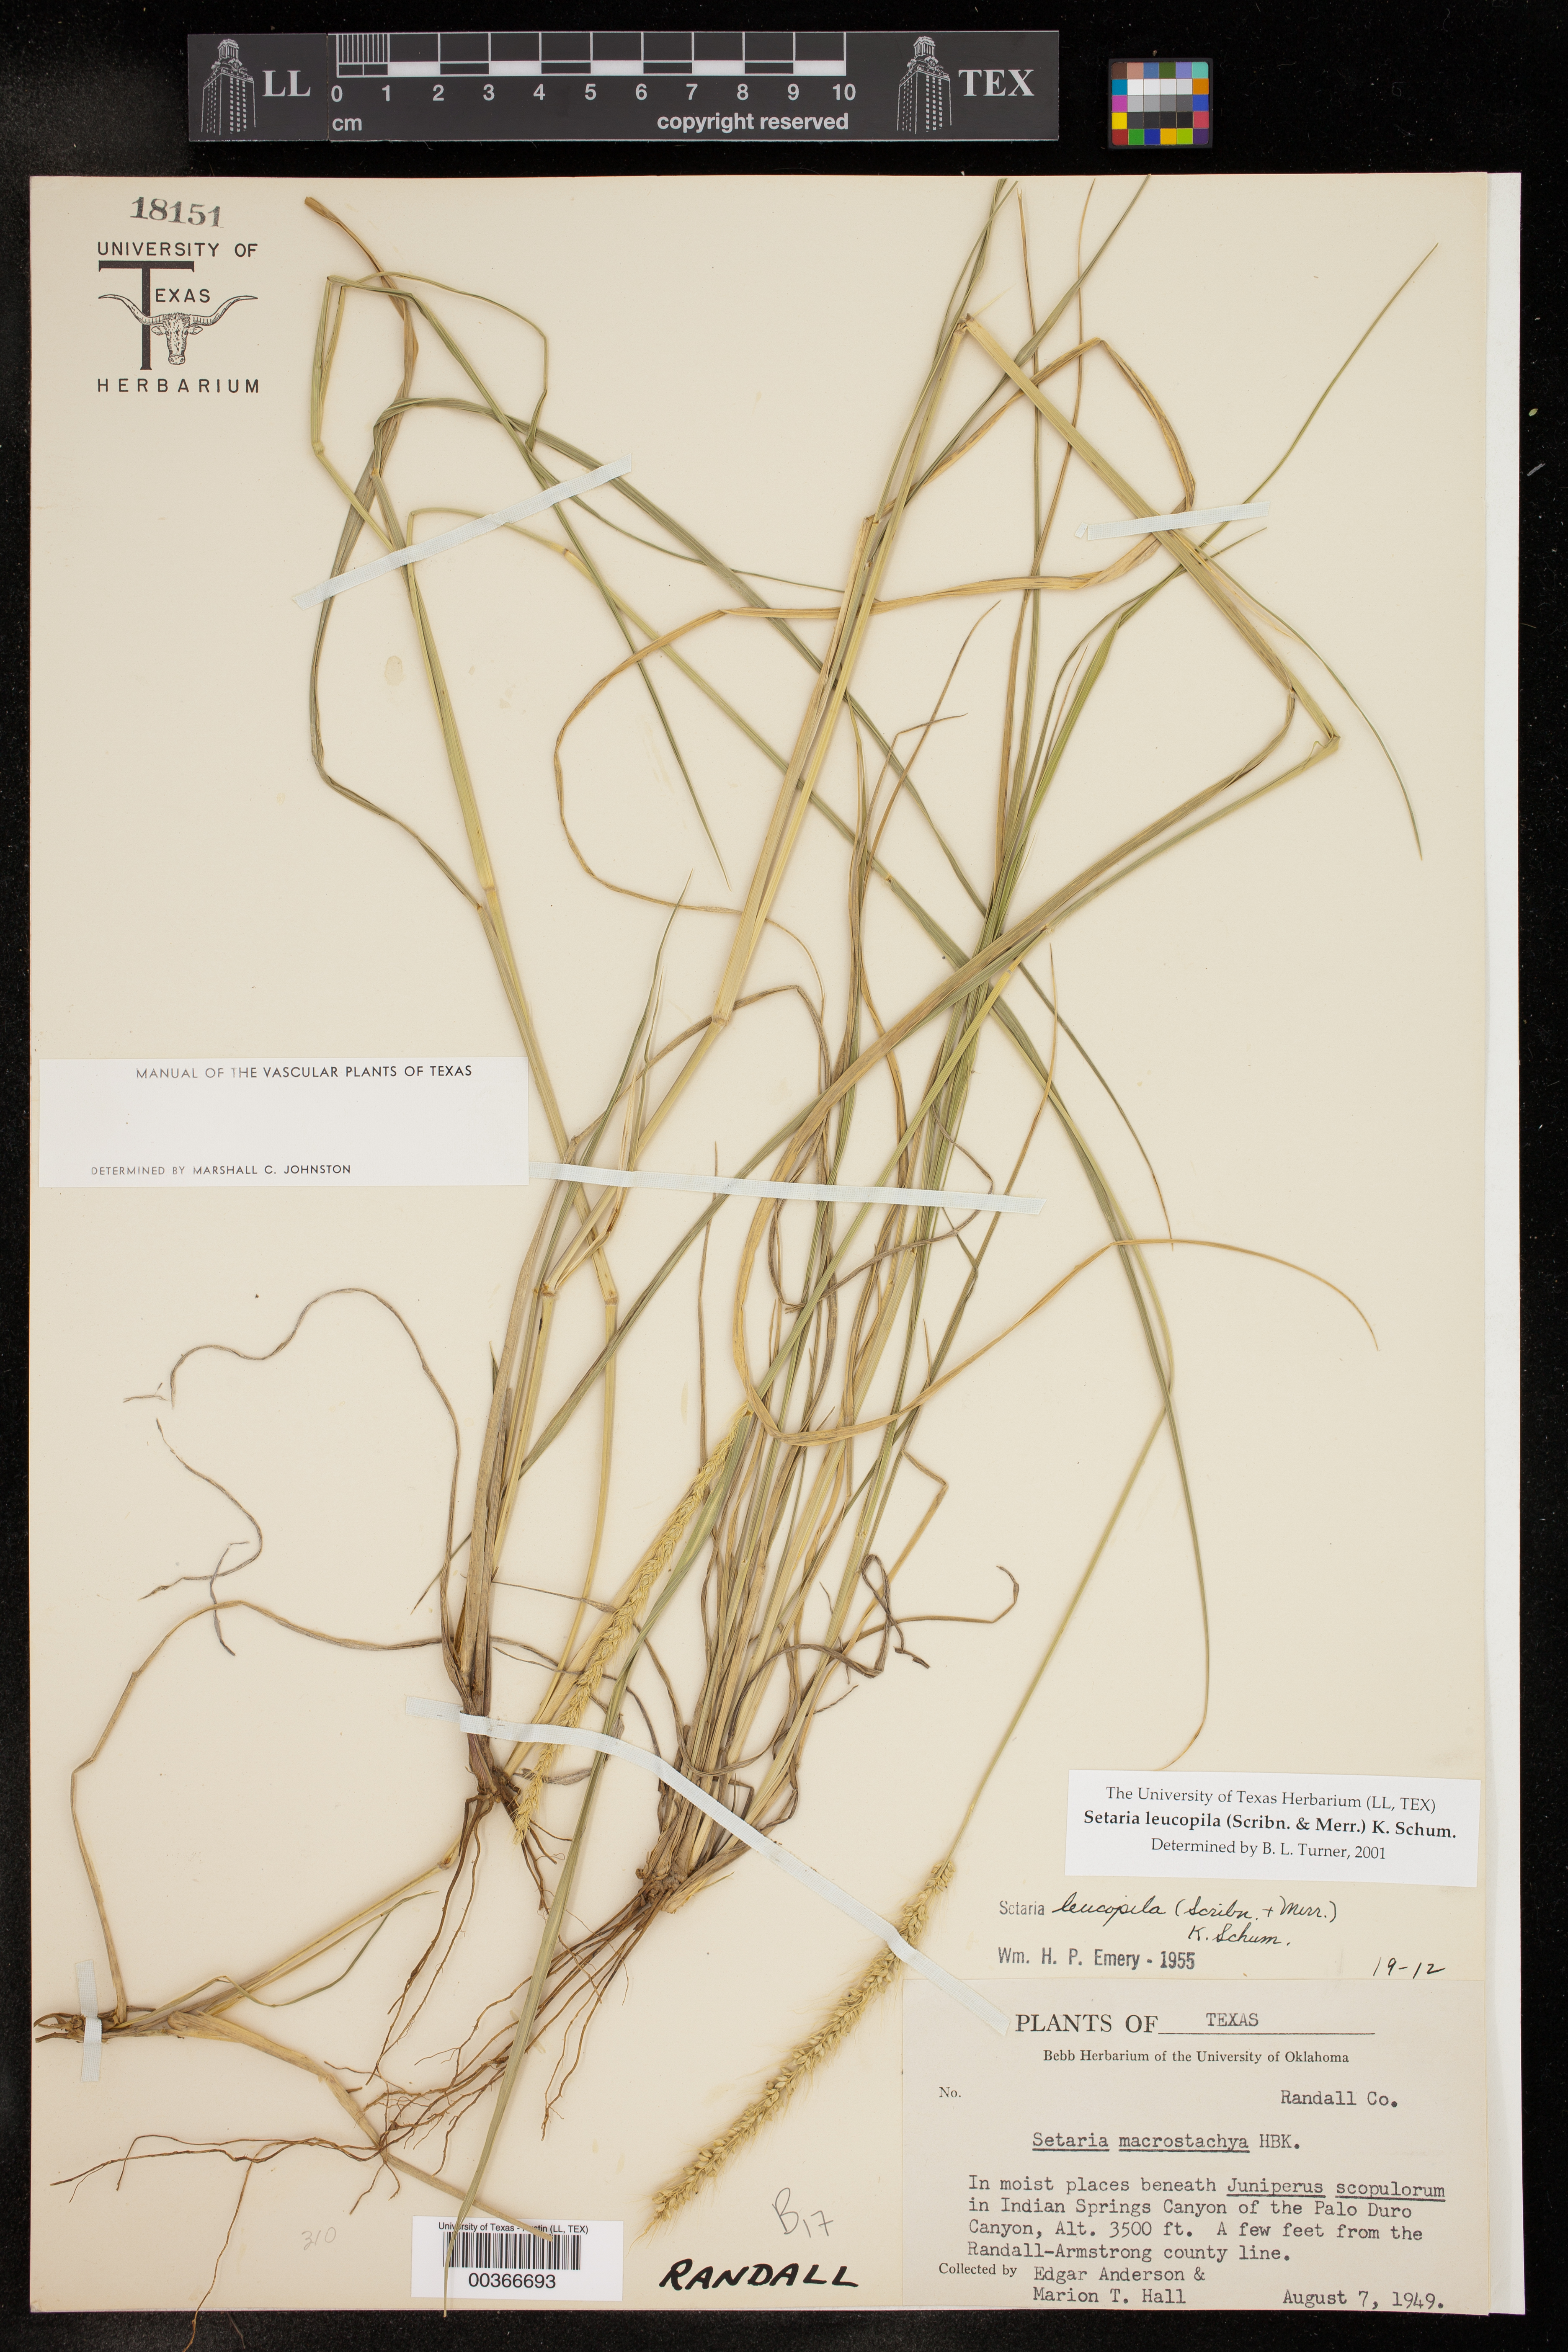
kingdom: Plantae
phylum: Tracheophyta
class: Liliopsida
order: Poales
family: Poaceae
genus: Setaria
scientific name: Setaria leucopila
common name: Plains bristle grass
